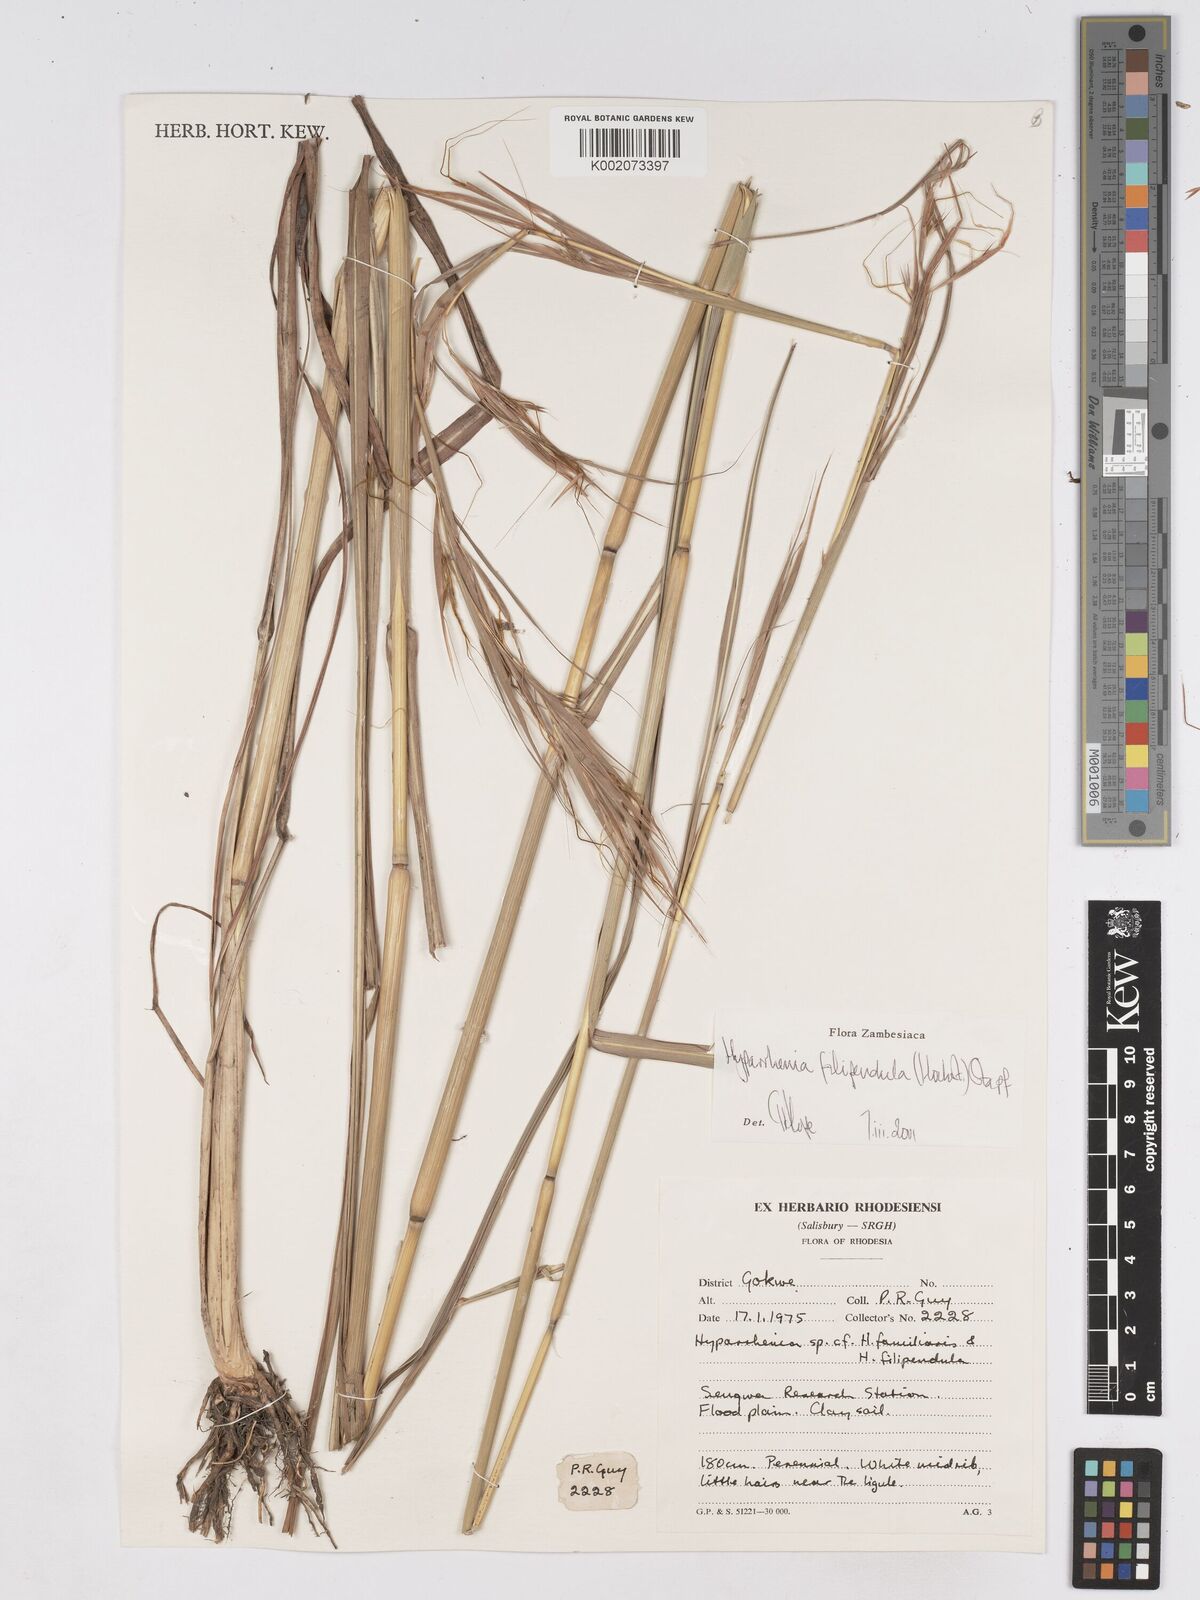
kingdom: Plantae
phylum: Tracheophyta
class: Liliopsida
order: Poales
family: Poaceae
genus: Hyparrhenia
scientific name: Hyparrhenia filipendula
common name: Tambookie grass
